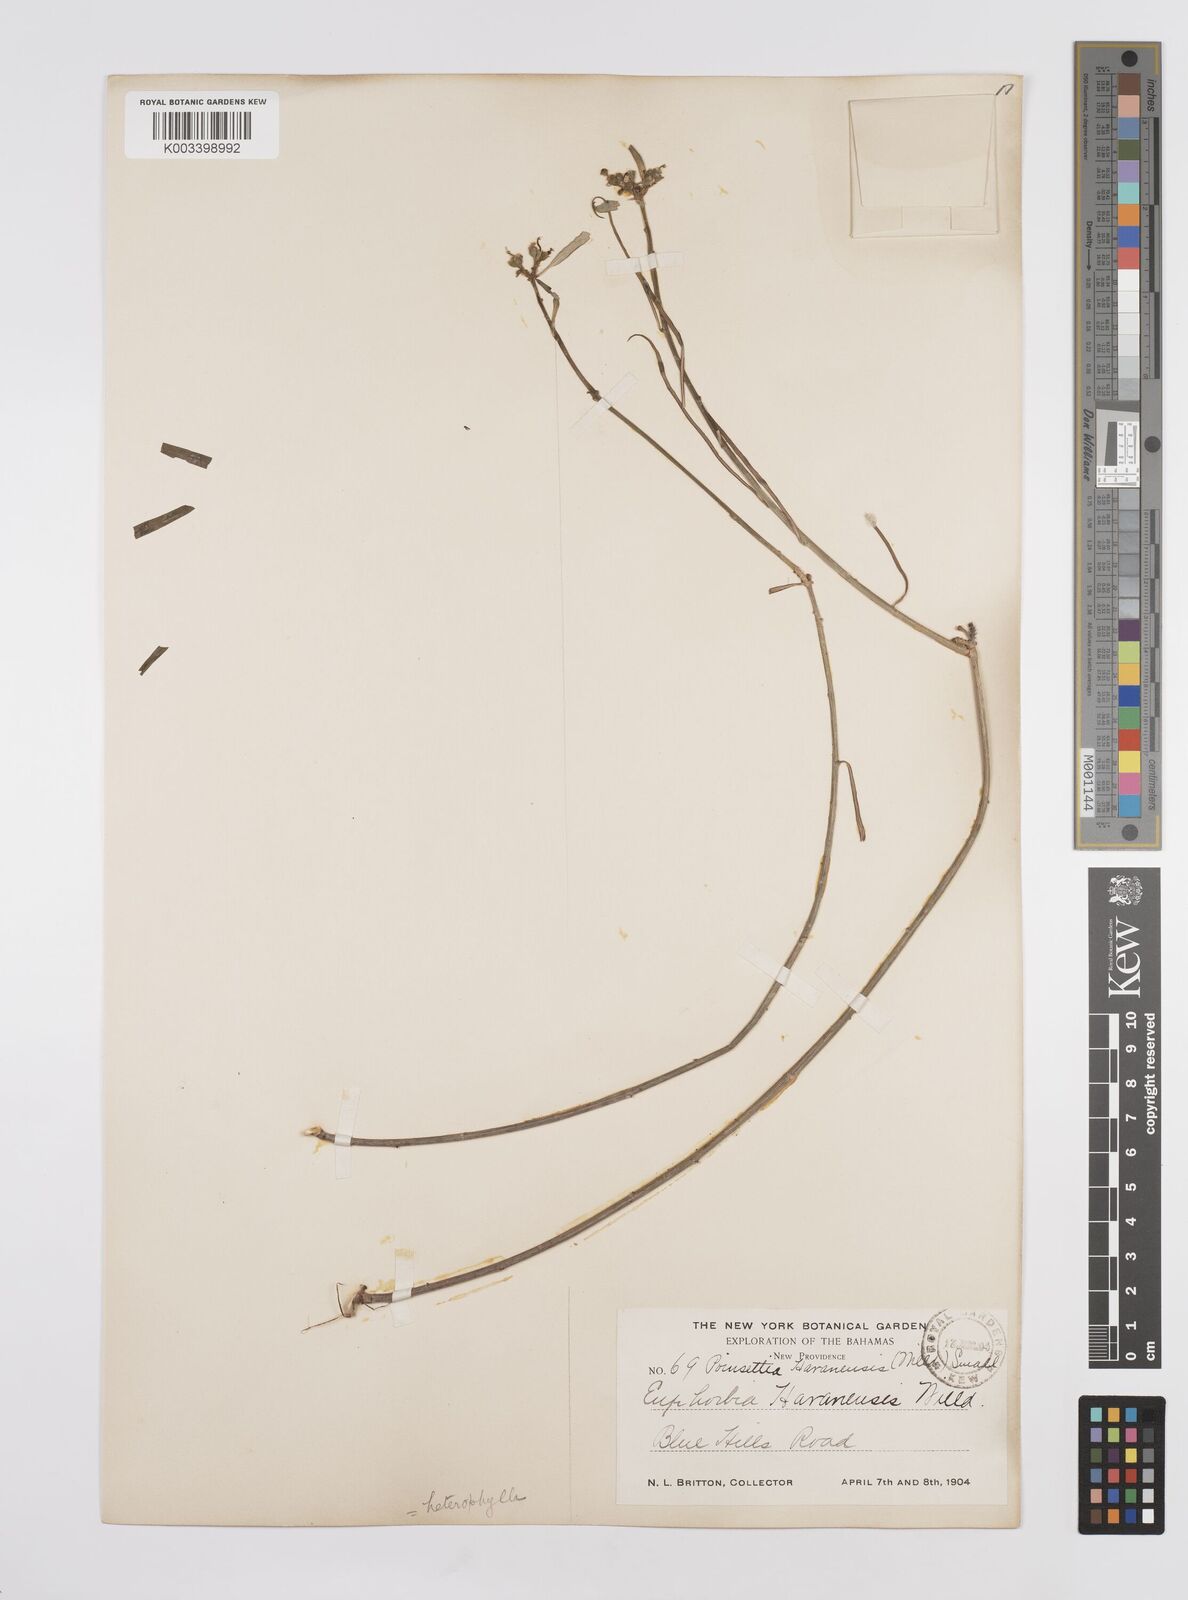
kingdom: Plantae
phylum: Tracheophyta
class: Magnoliopsida
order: Malpighiales
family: Euphorbiaceae
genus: Euphorbia
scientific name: Euphorbia heterophylla
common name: Mexican fireplant
